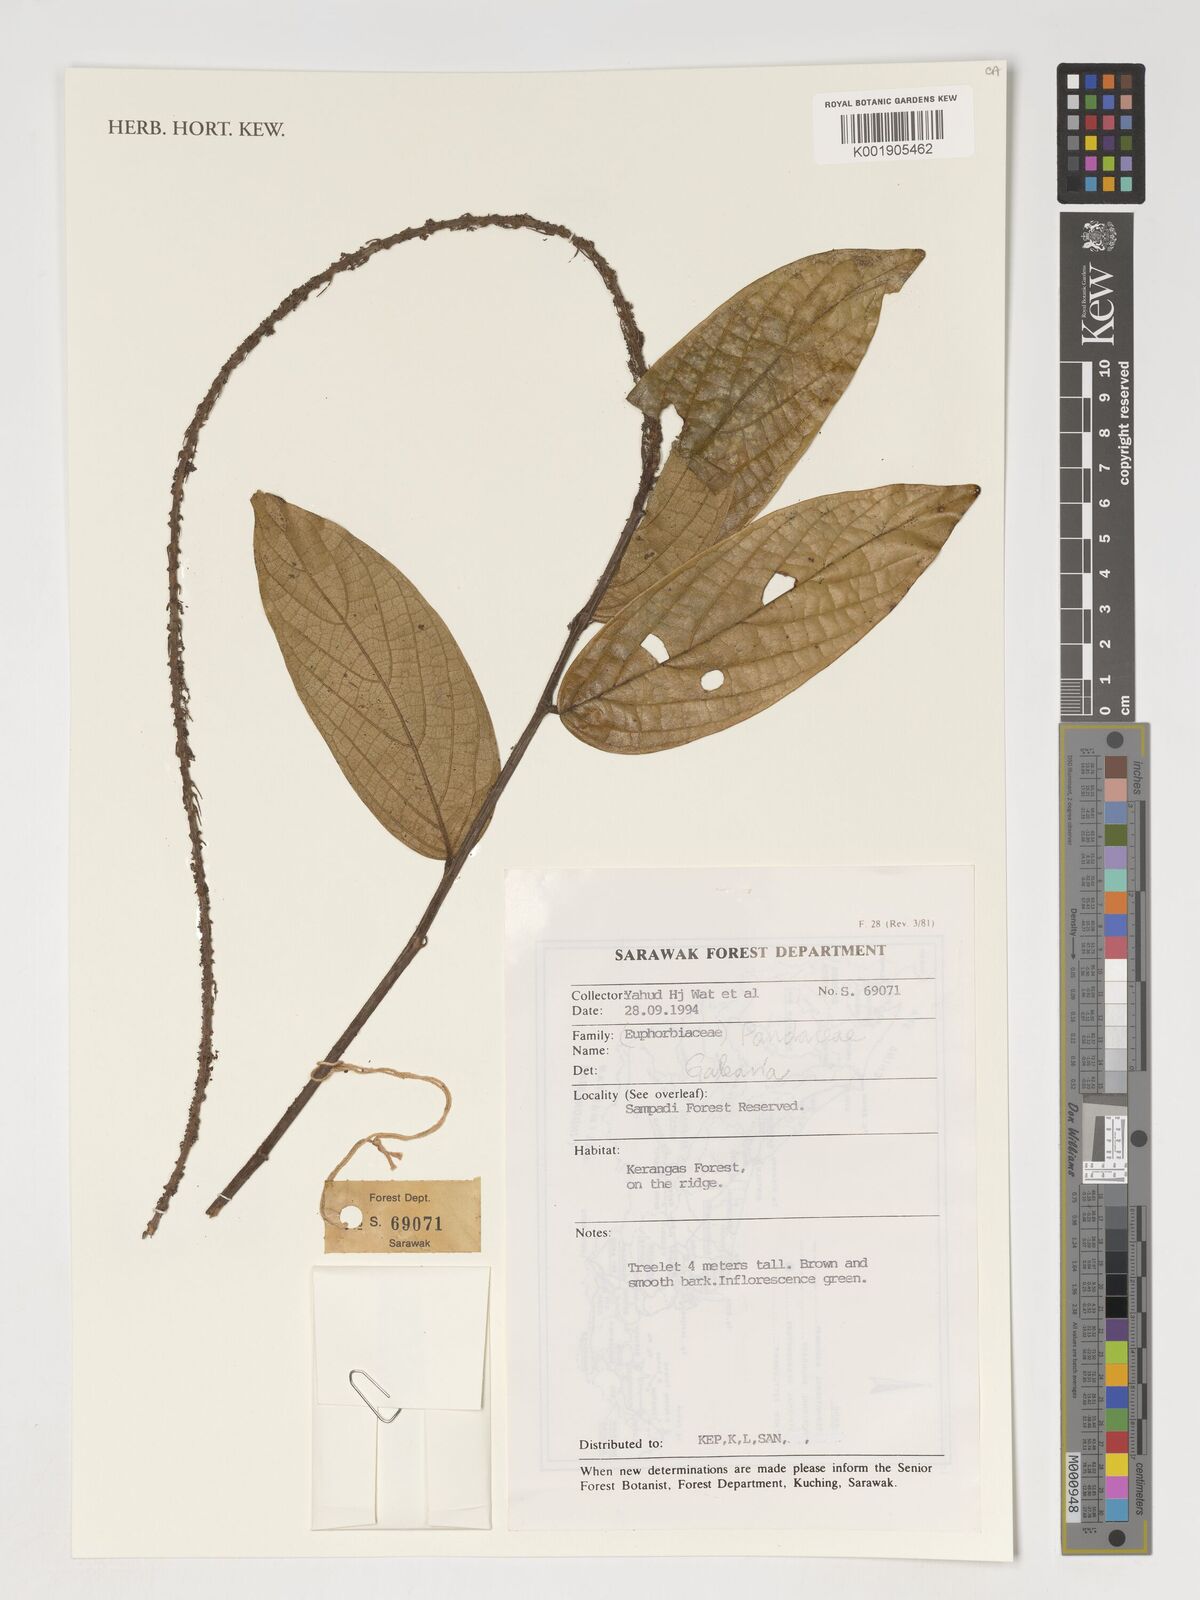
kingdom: Plantae
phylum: Tracheophyta
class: Magnoliopsida
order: Malpighiales
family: Pandaceae
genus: Galearia
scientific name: Galearia
